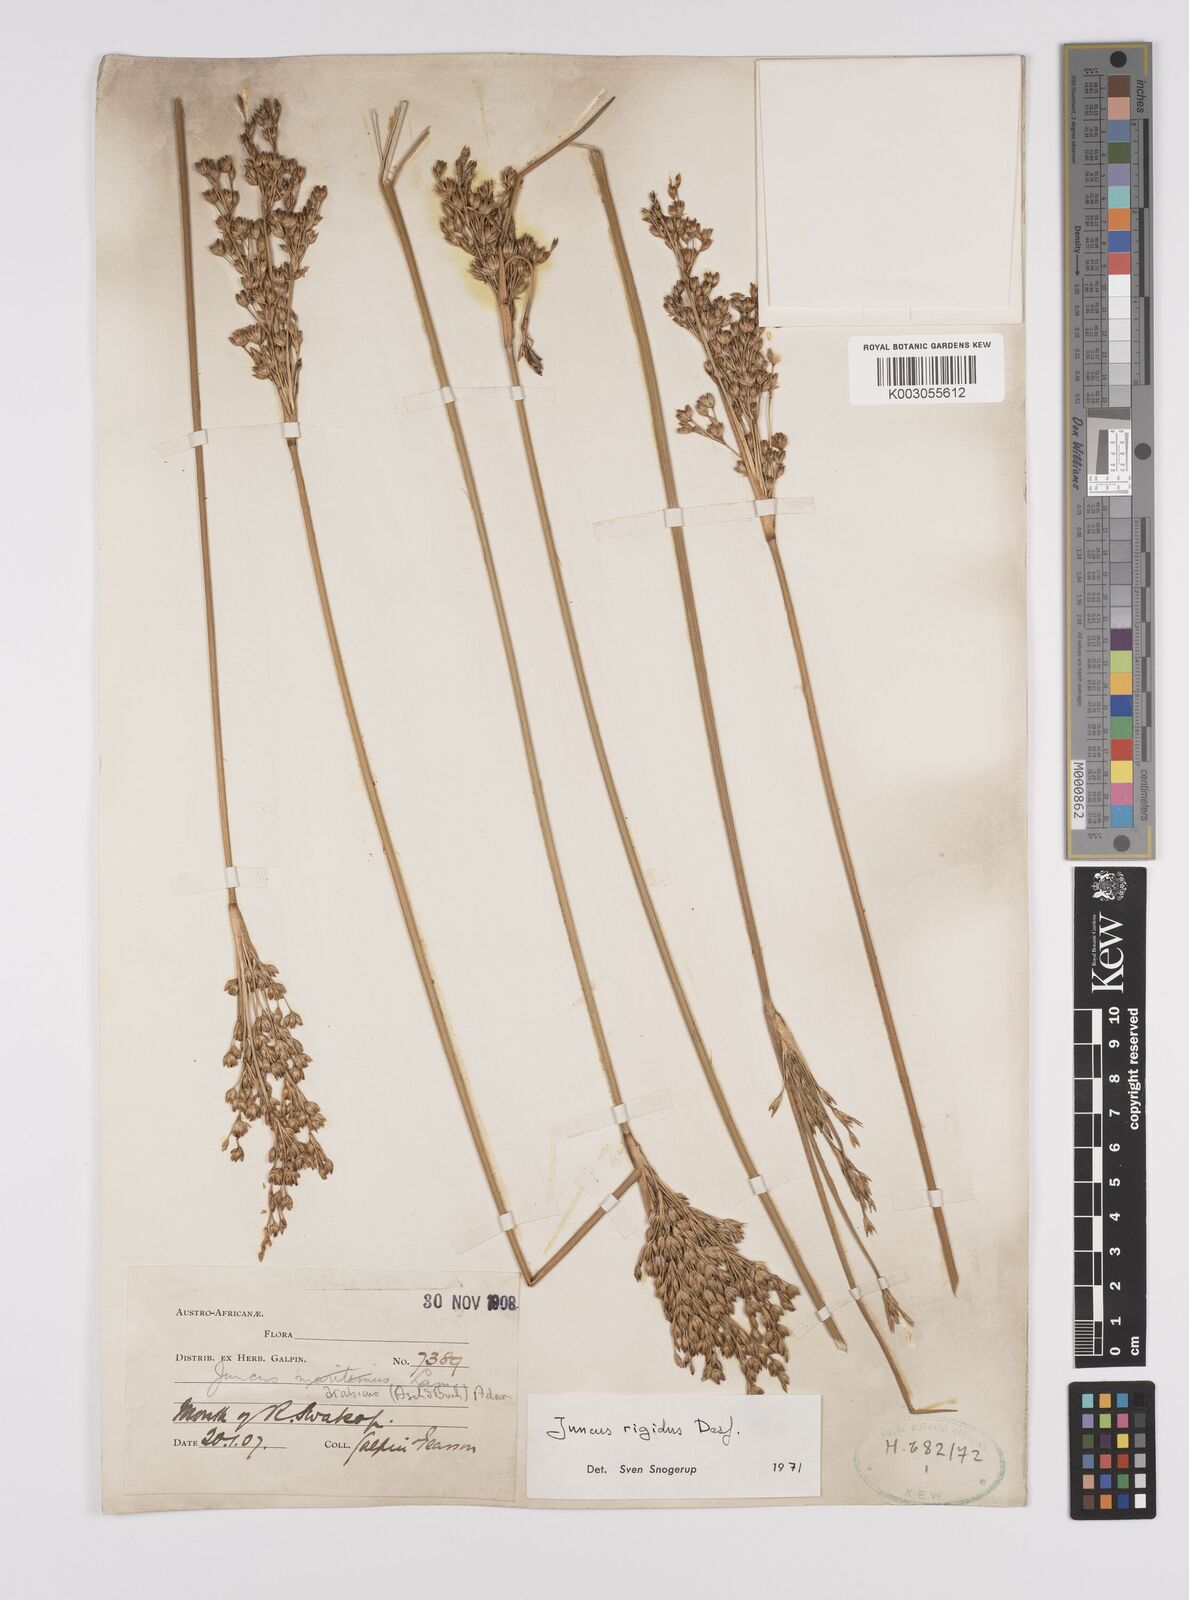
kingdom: Plantae
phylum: Tracheophyta
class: Liliopsida
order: Poales
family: Juncaceae
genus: Juncus
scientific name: Juncus rigidus
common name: Hard sea rush
